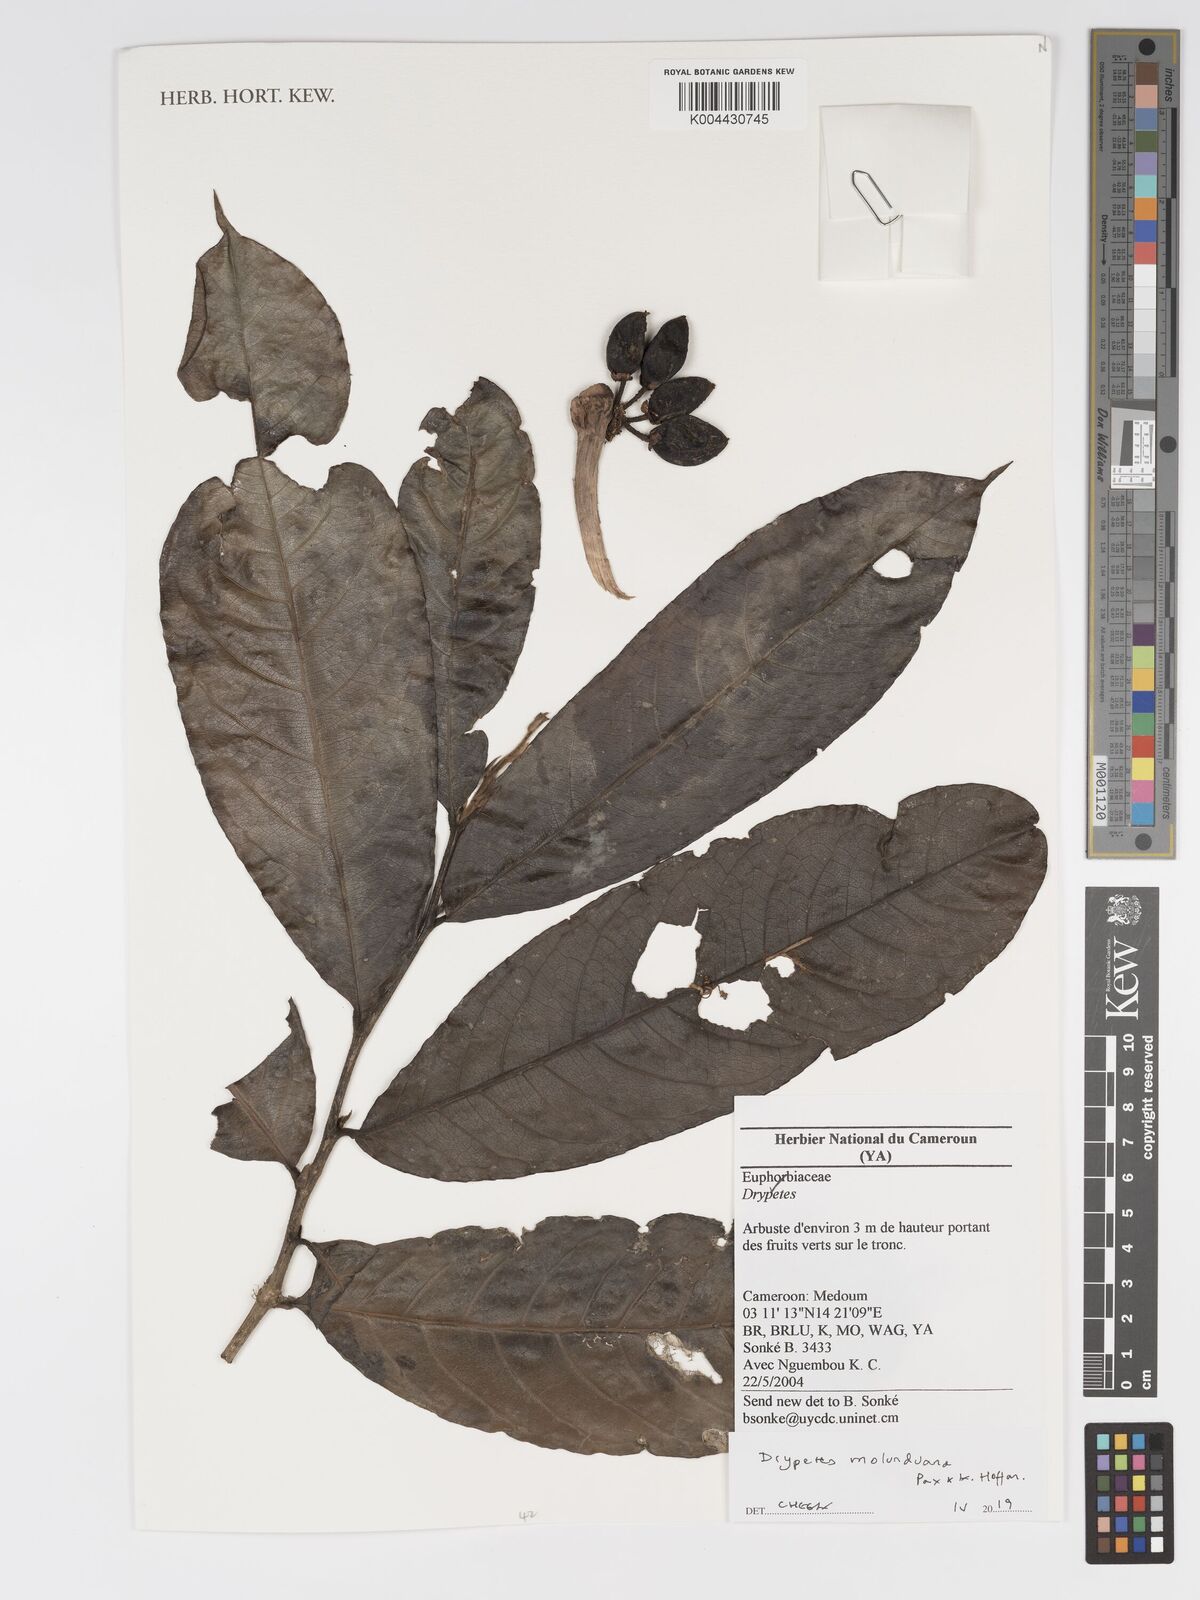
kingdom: Plantae
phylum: Tracheophyta
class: Magnoliopsida
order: Malpighiales
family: Putranjivaceae
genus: Drypetes
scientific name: Drypetes molunduana
